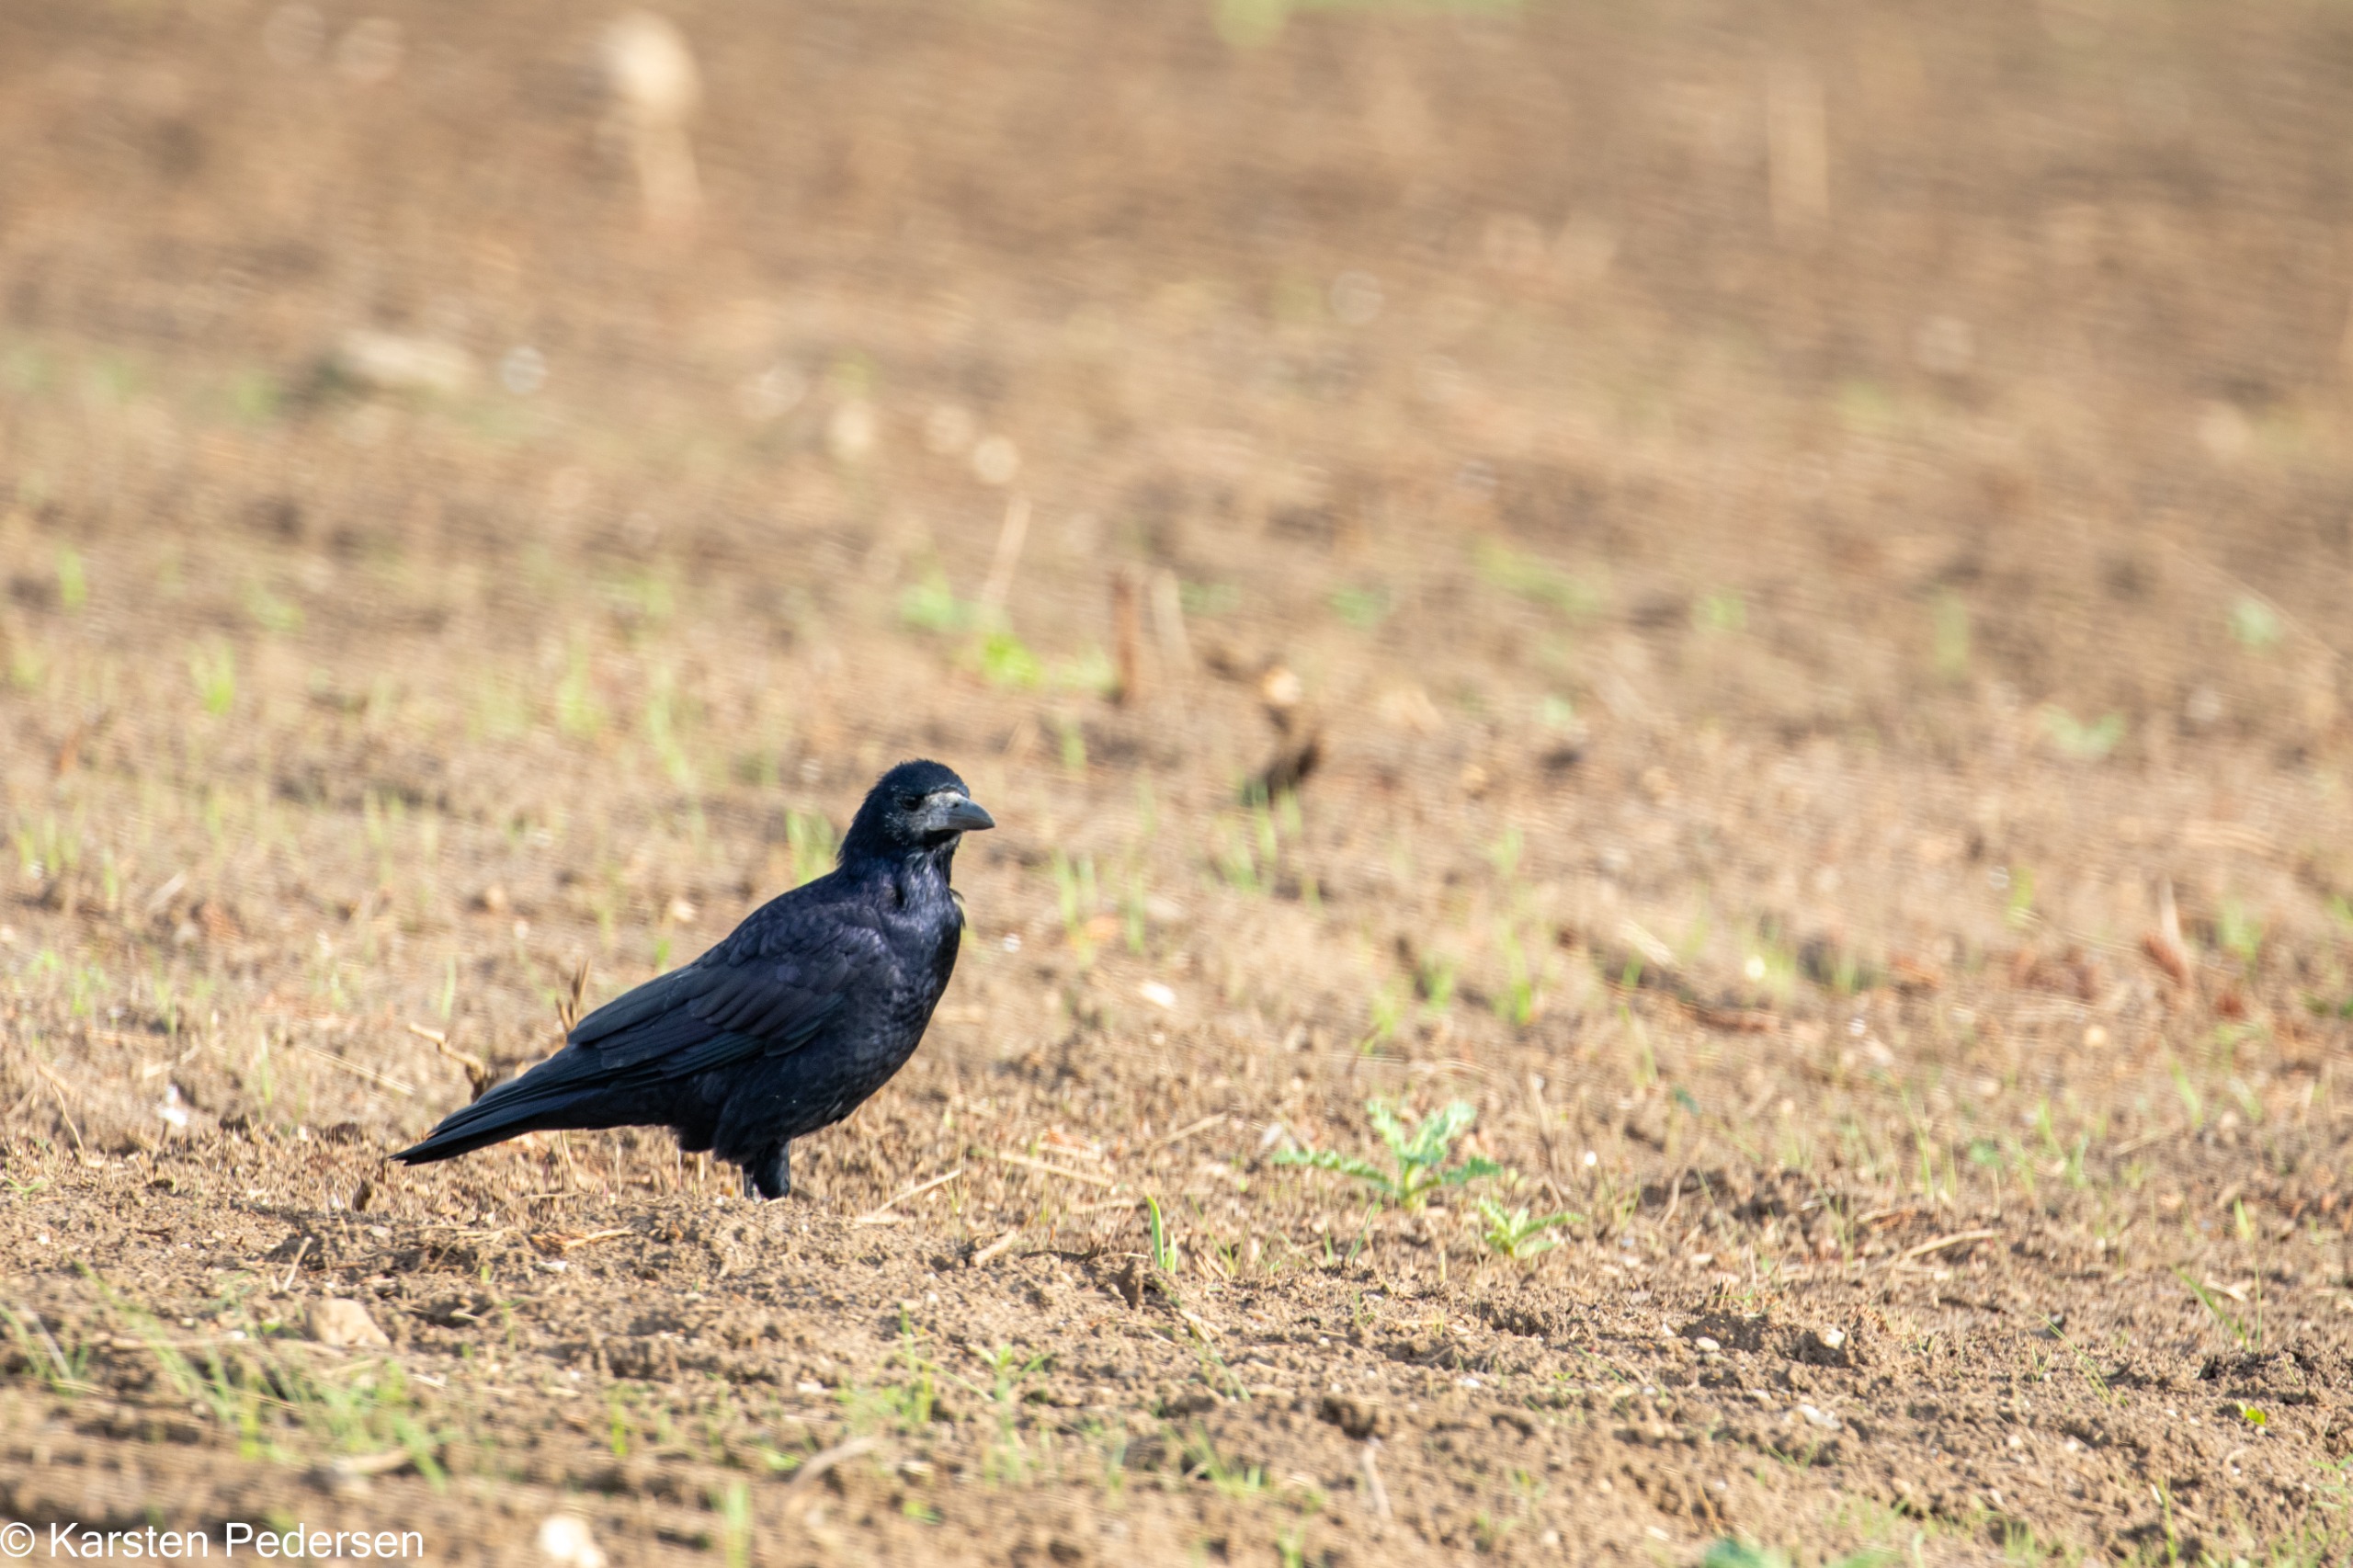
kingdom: Animalia
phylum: Chordata
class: Aves
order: Passeriformes
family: Corvidae
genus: Corvus
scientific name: Corvus frugilegus
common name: Råge
